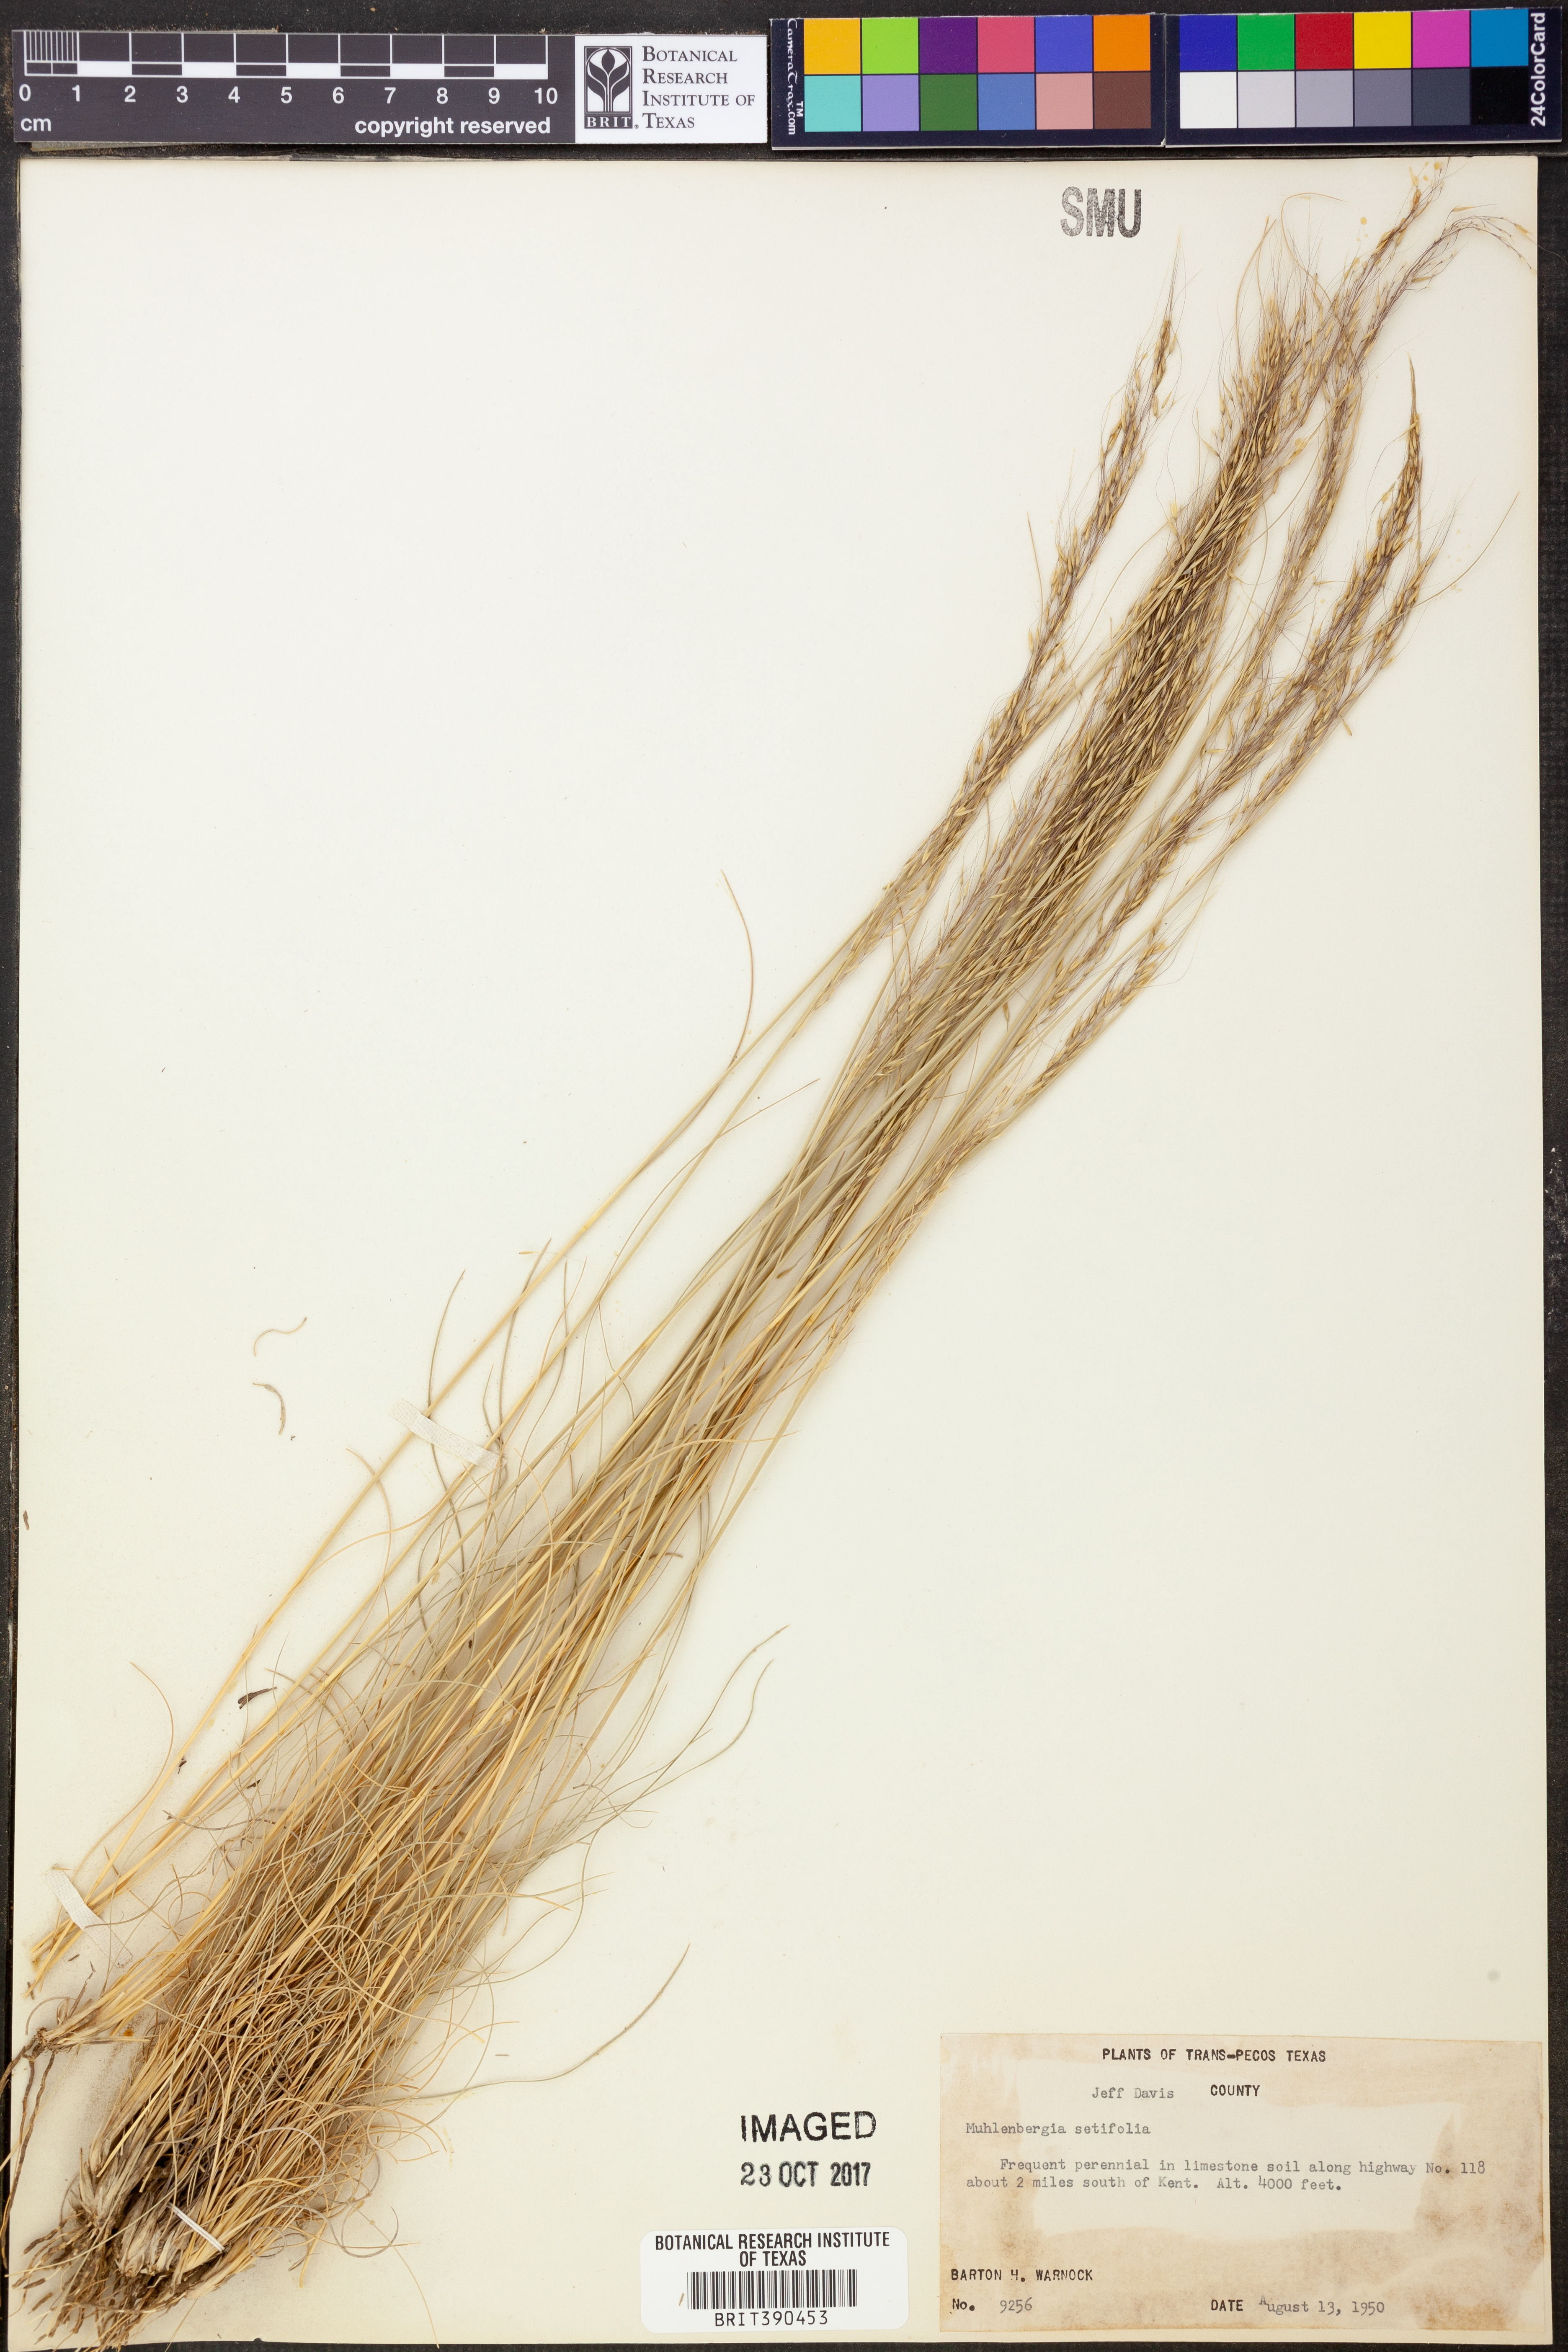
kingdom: Plantae
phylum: Tracheophyta
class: Liliopsida
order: Poales
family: Poaceae
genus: Muhlenbergia
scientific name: Muhlenbergia setifolia
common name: Curly-leaf muhly
